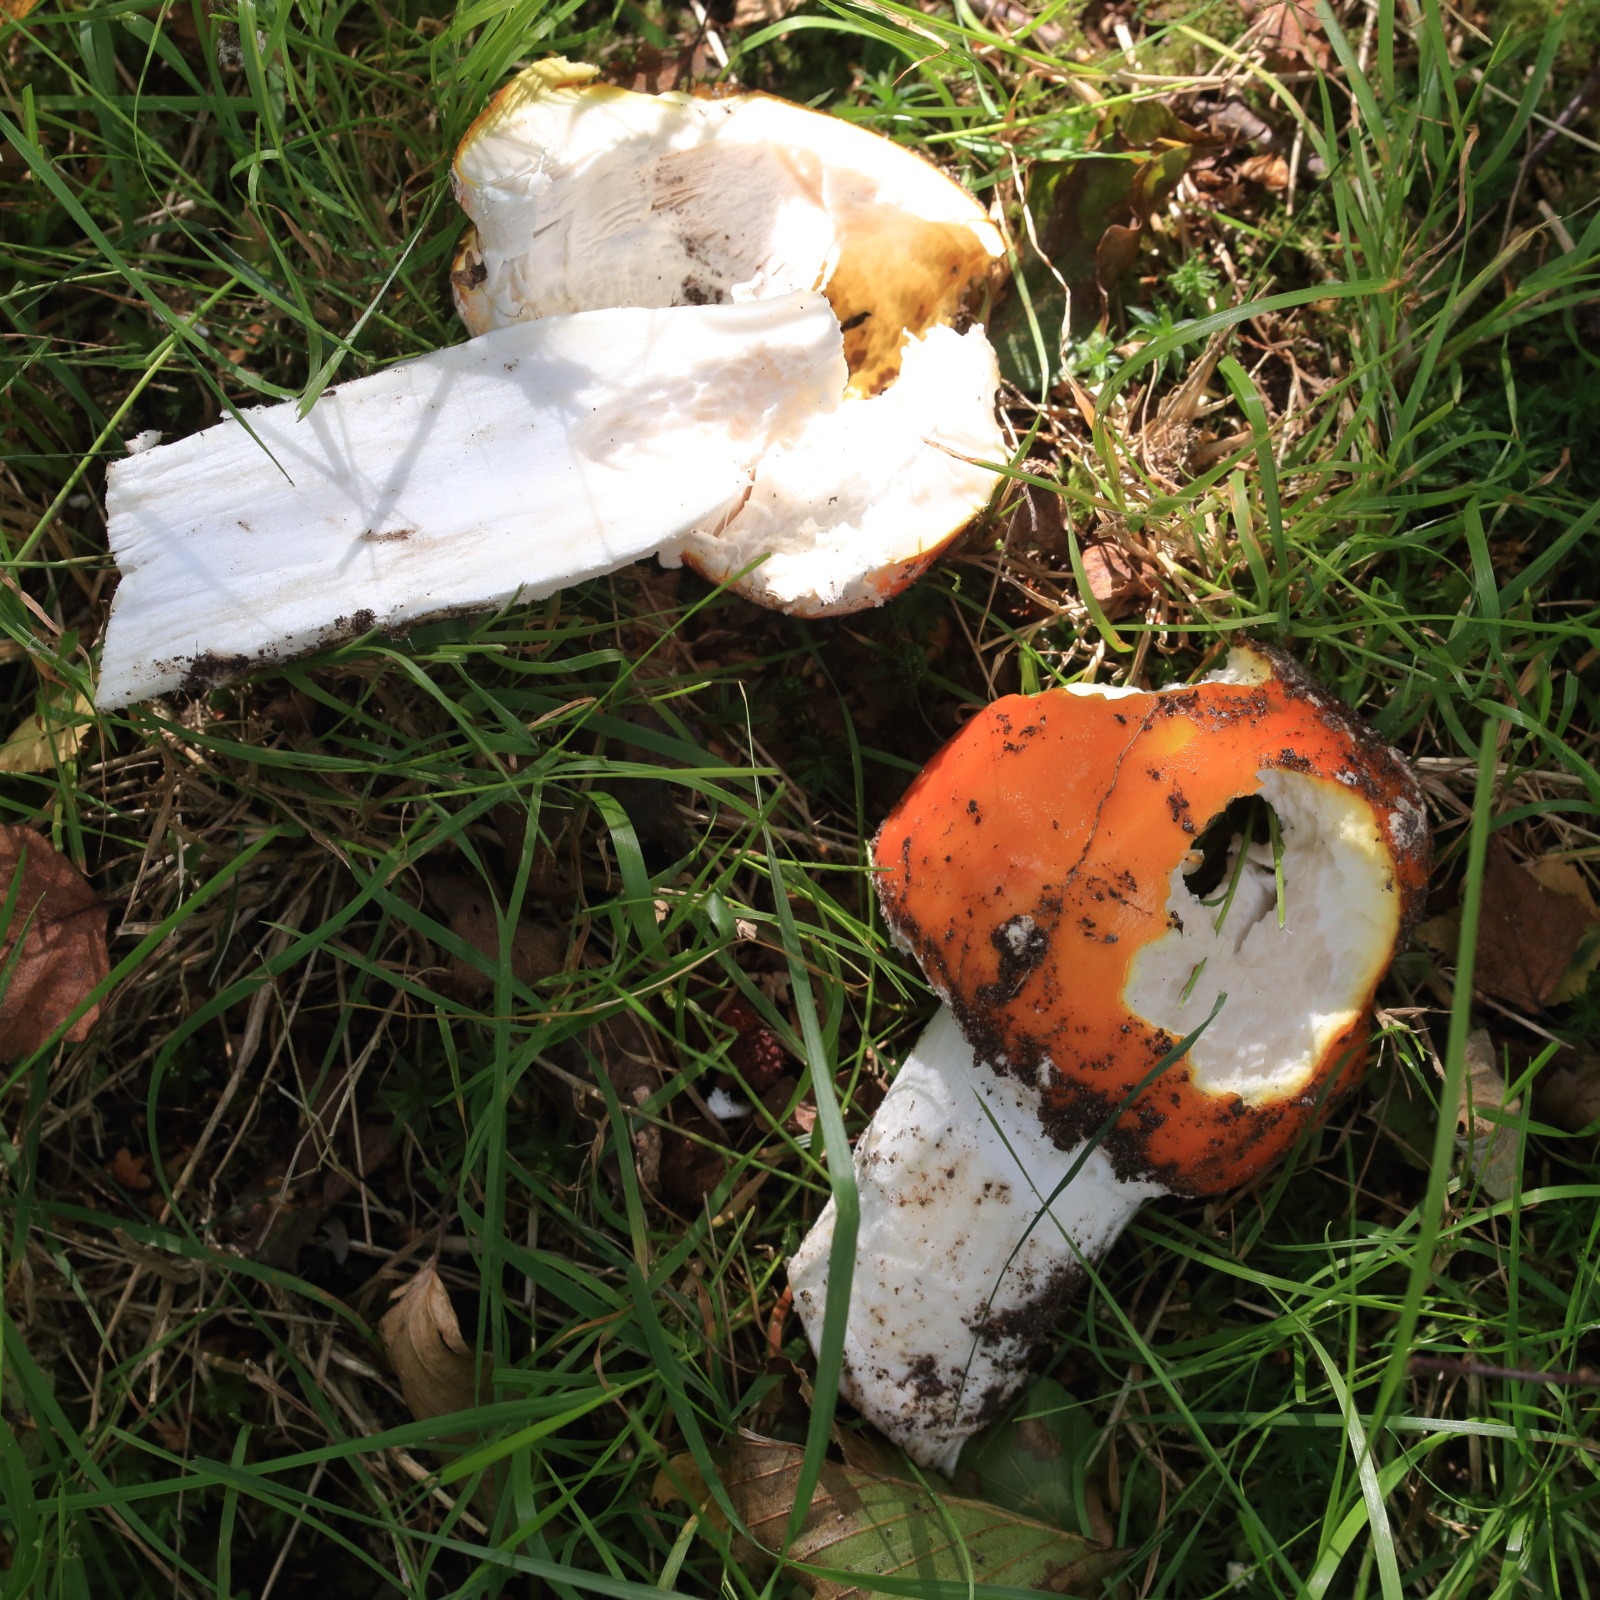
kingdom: Fungi
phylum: Basidiomycota
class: Agaricomycetes
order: Agaricales
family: Amanitaceae
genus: Amanita
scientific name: Amanita muscaria
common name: Rød fluesvamp
